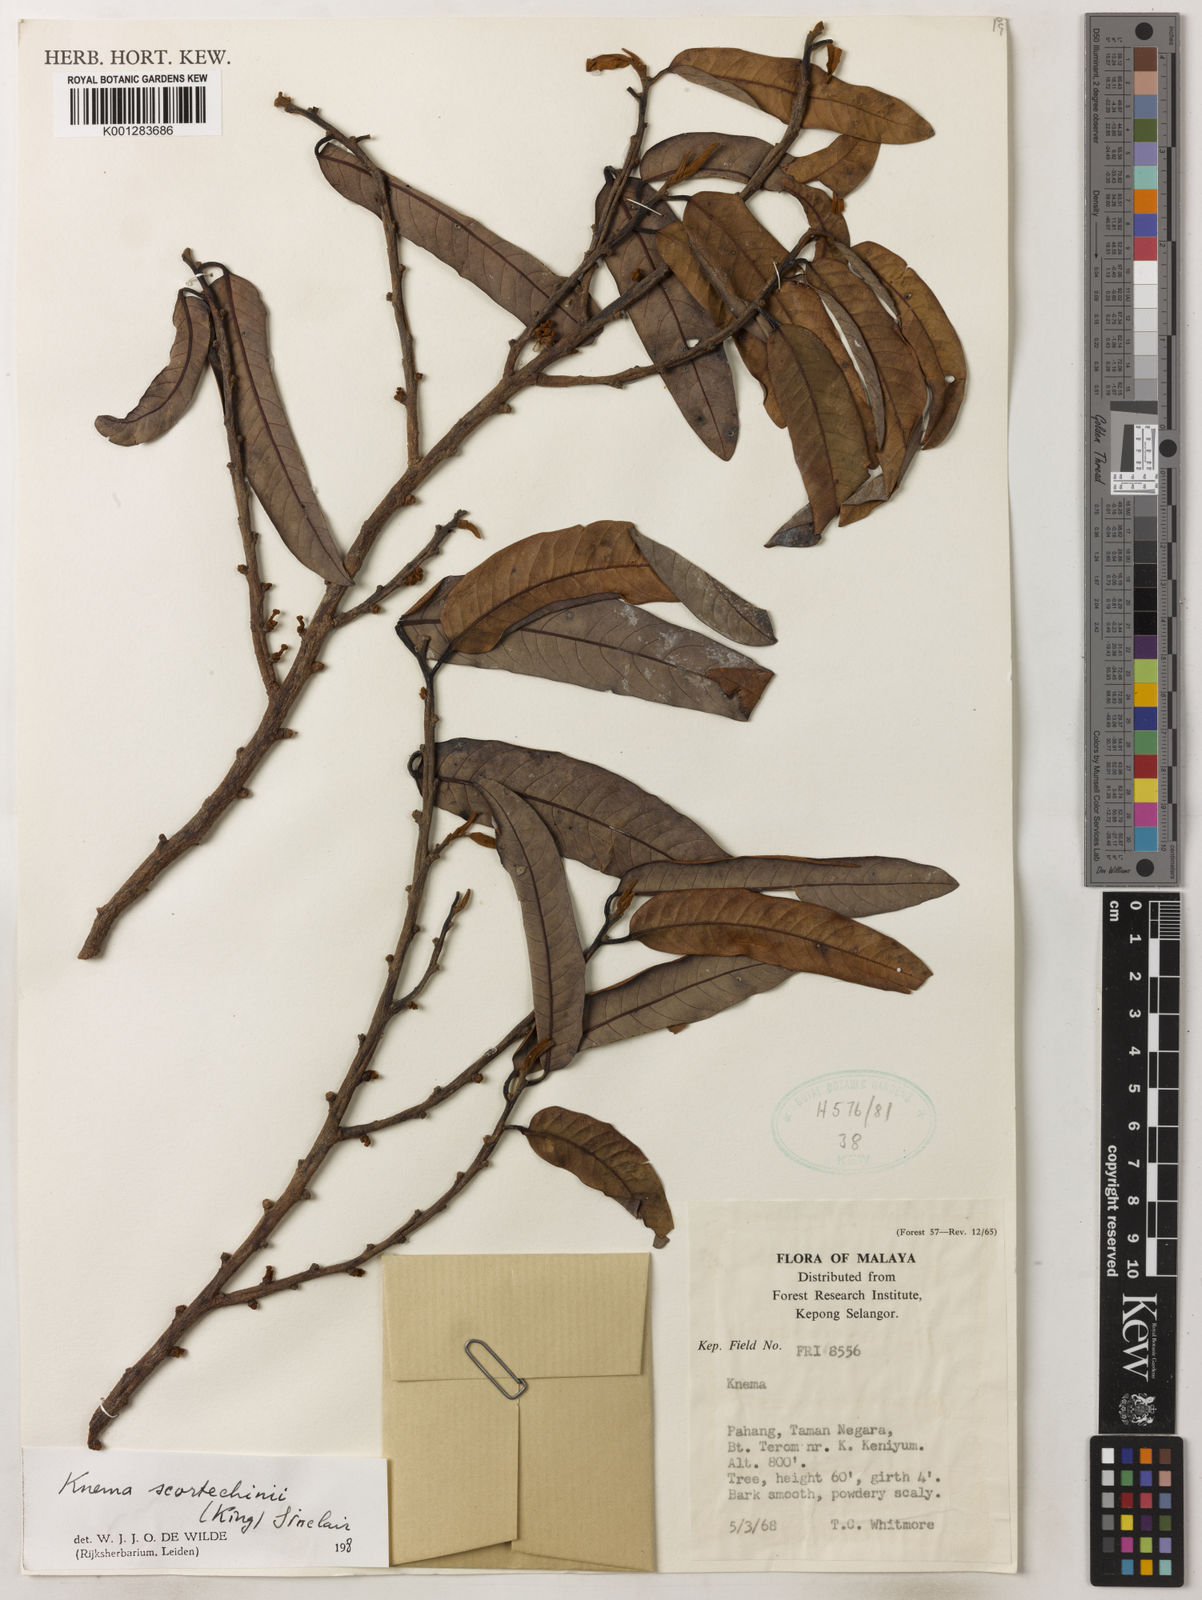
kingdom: Plantae
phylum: Tracheophyta
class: Magnoliopsida
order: Magnoliales
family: Myristicaceae
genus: Knema
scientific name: Knema scortechinii
